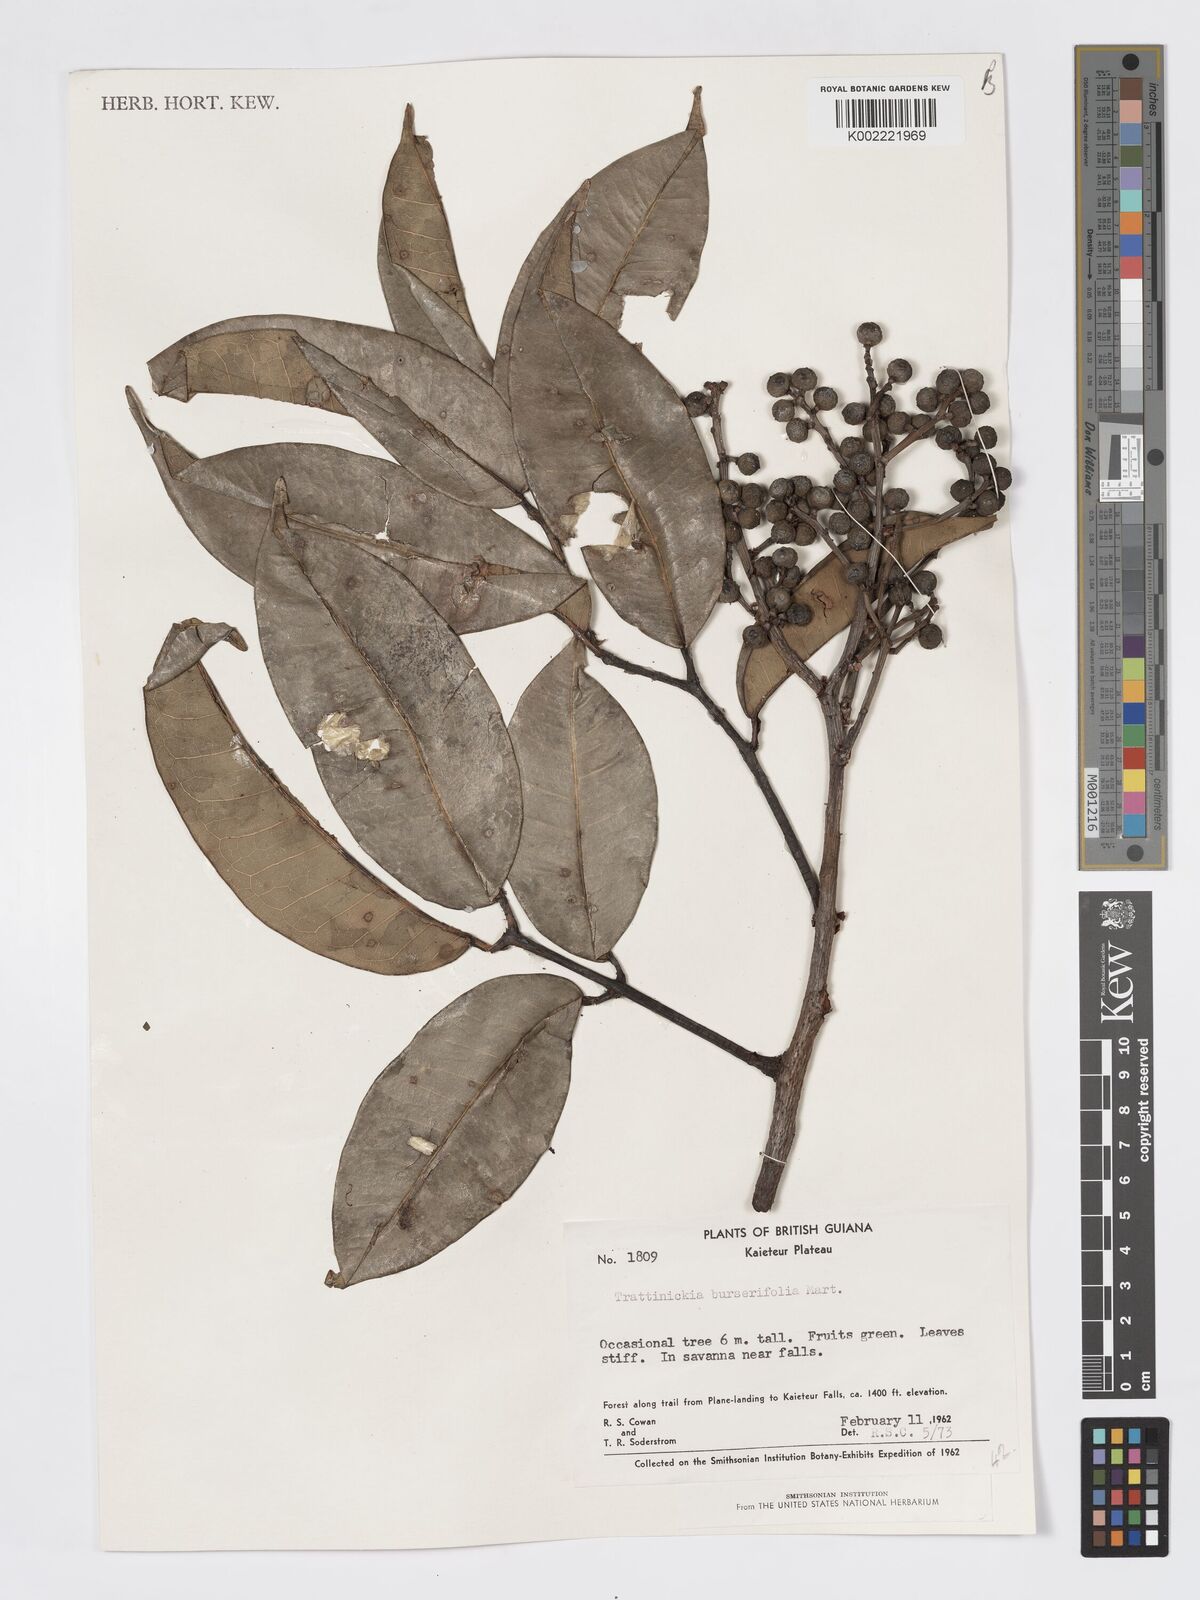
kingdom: Plantae
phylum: Tracheophyta
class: Magnoliopsida
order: Sapindales
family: Burseraceae
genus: Trattinnickia
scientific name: Trattinnickia burserifolia
